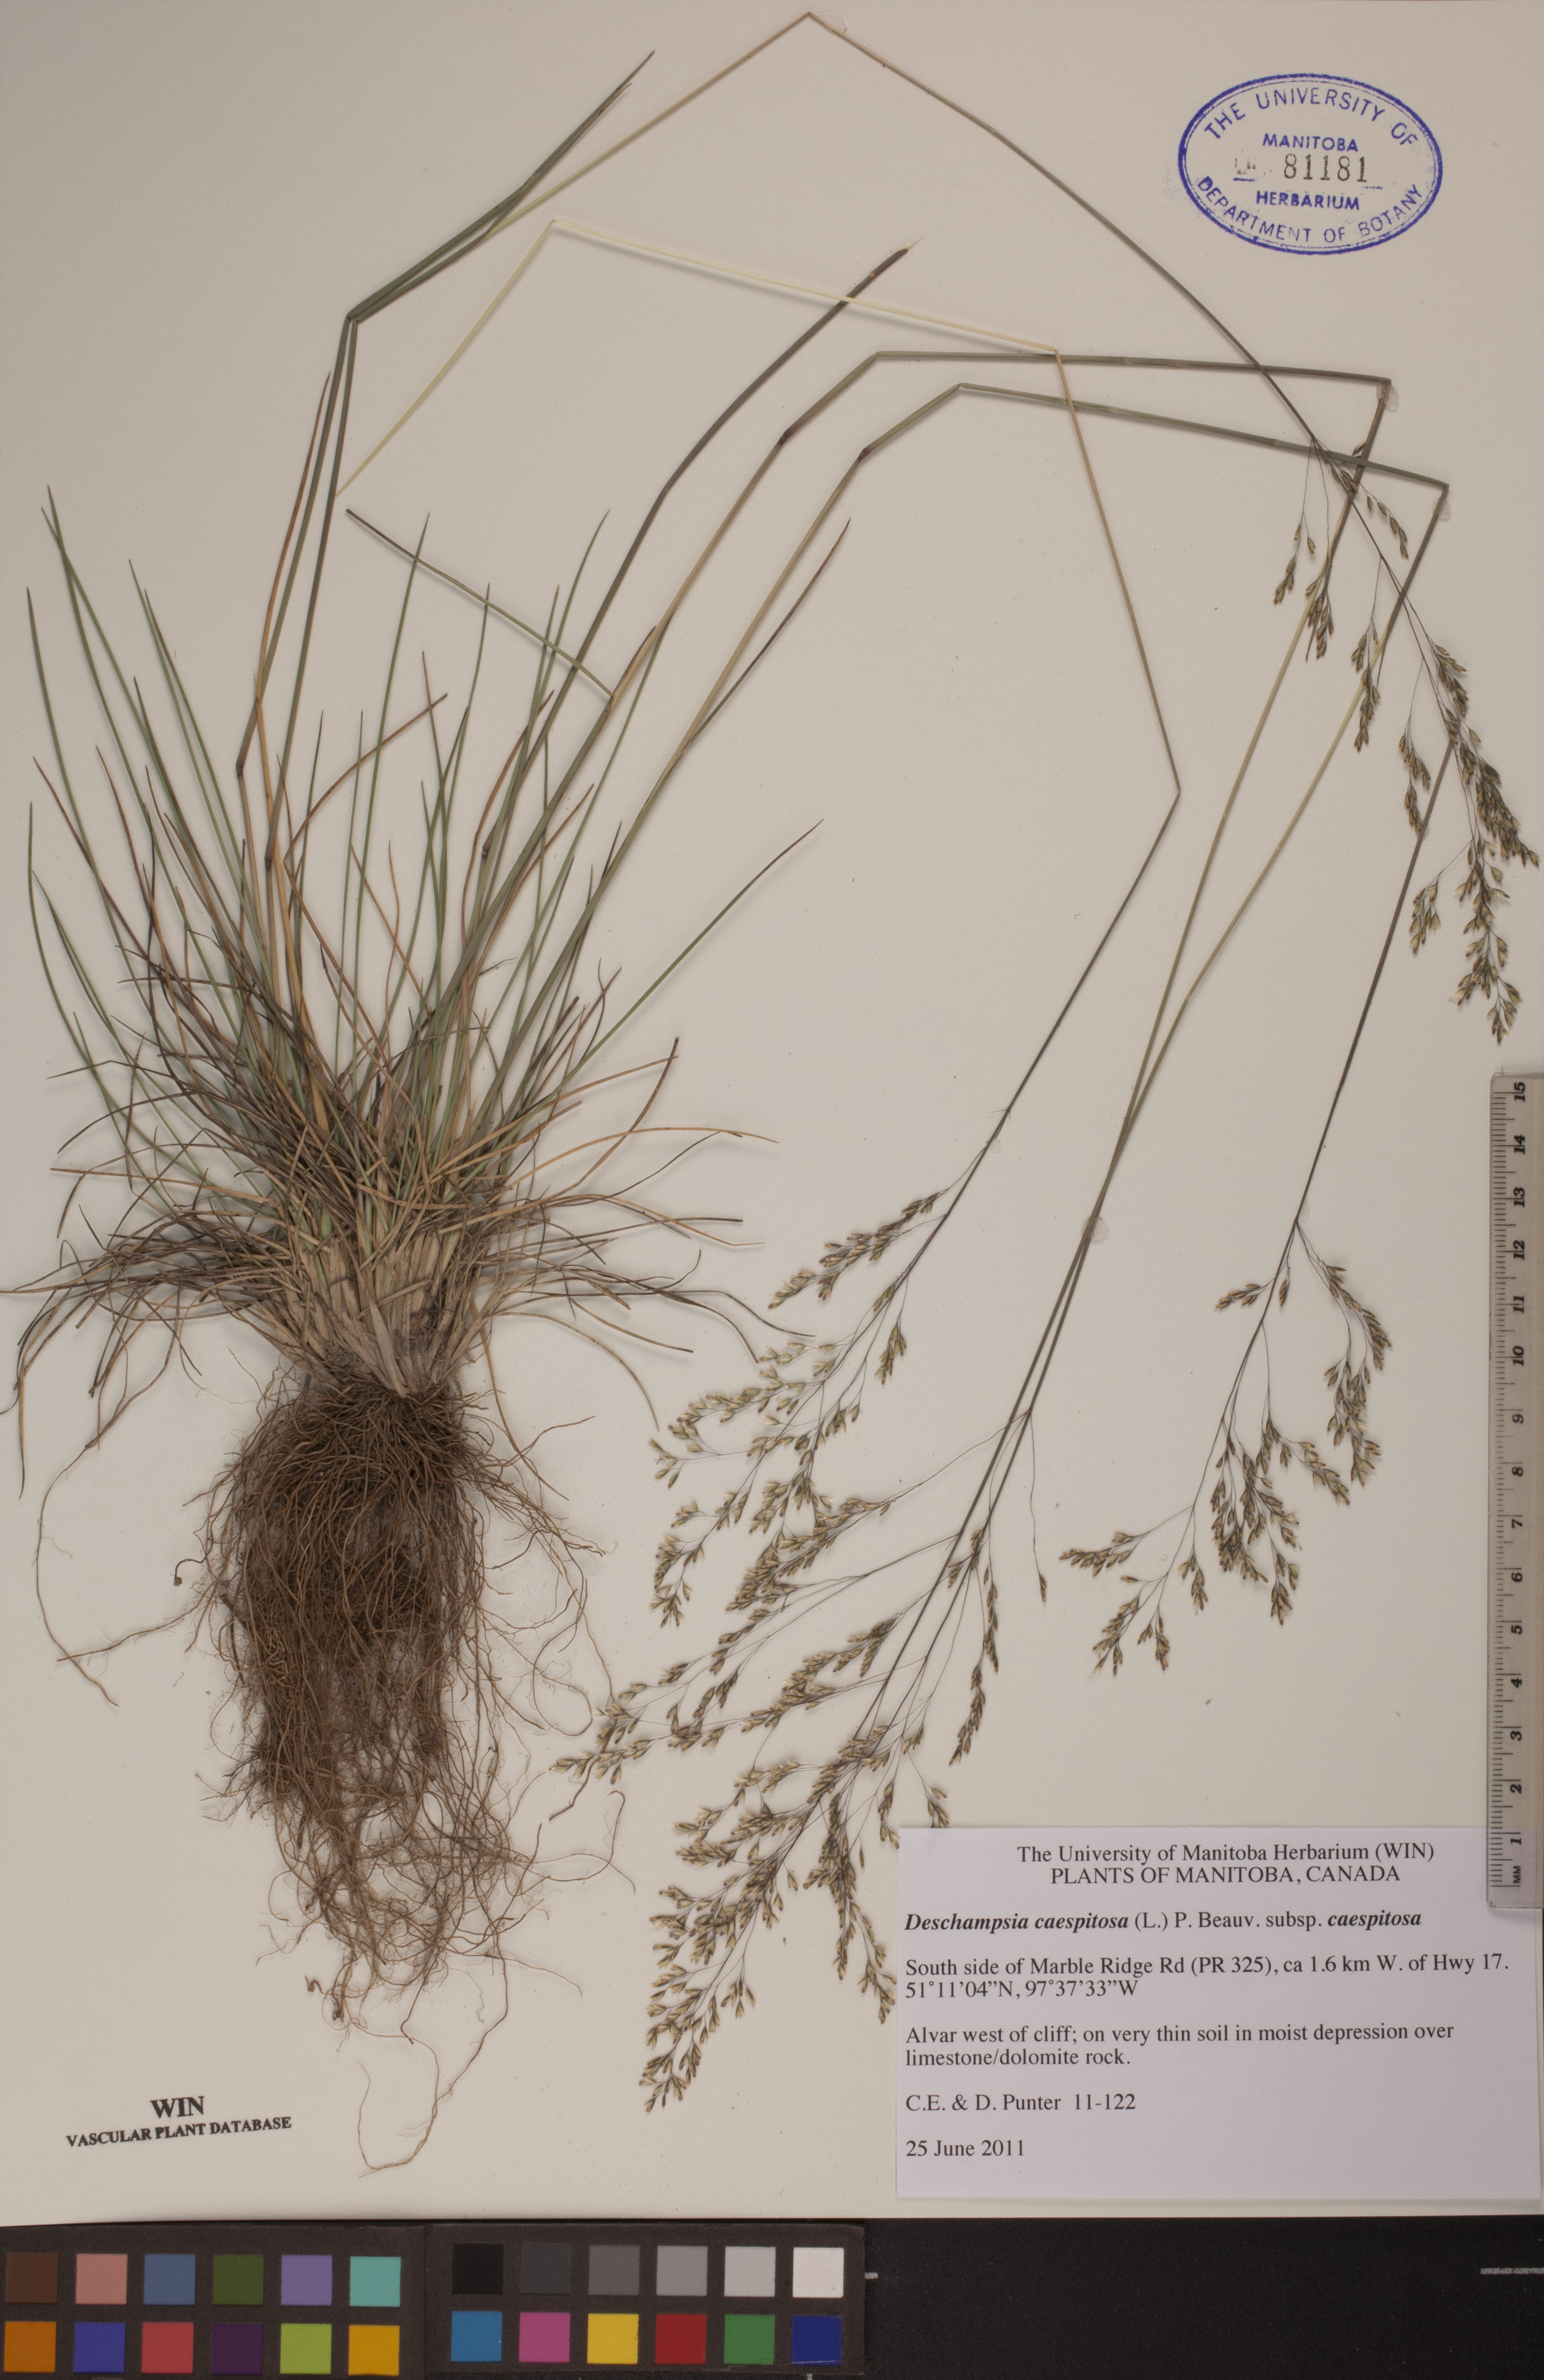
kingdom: Plantae
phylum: Tracheophyta
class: Liliopsida
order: Poales
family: Poaceae
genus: Deschampsia
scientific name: Deschampsia cespitosa
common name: Tufted hair-grass
